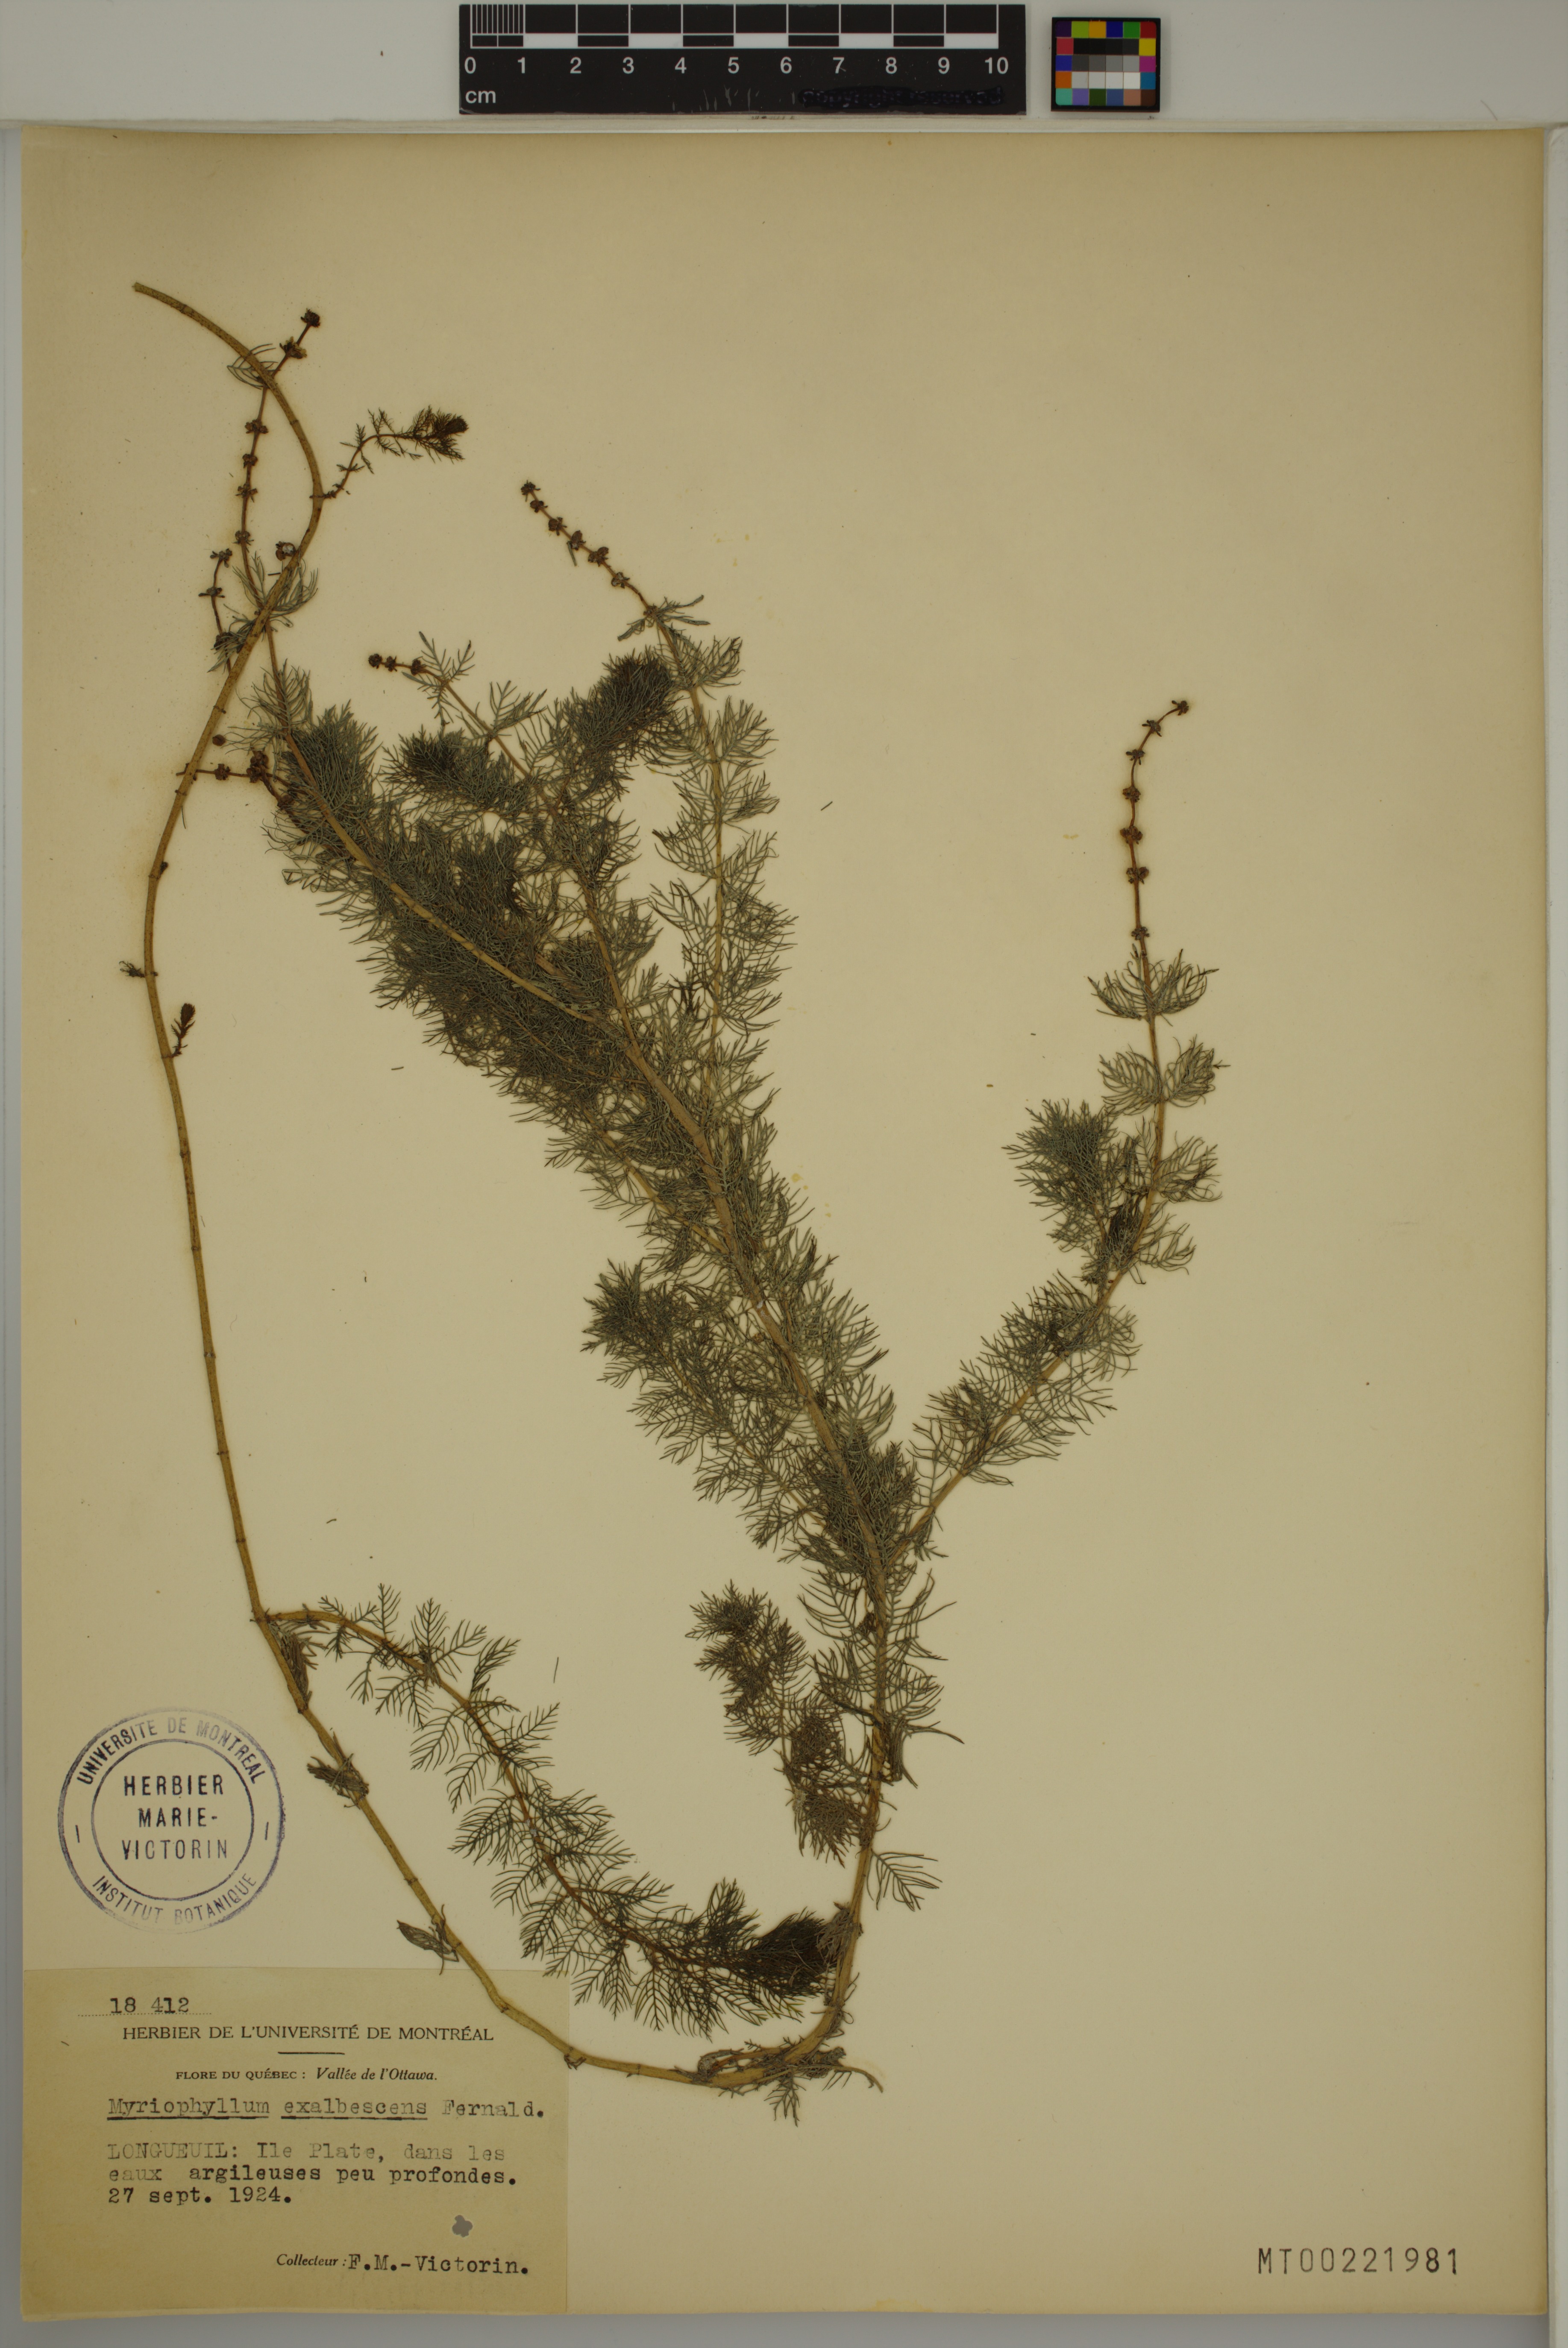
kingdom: Plantae
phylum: Tracheophyta
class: Magnoliopsida
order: Saxifragales
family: Haloragaceae
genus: Myriophyllum
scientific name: Myriophyllum sibiricum
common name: Siberian water-milfoil
